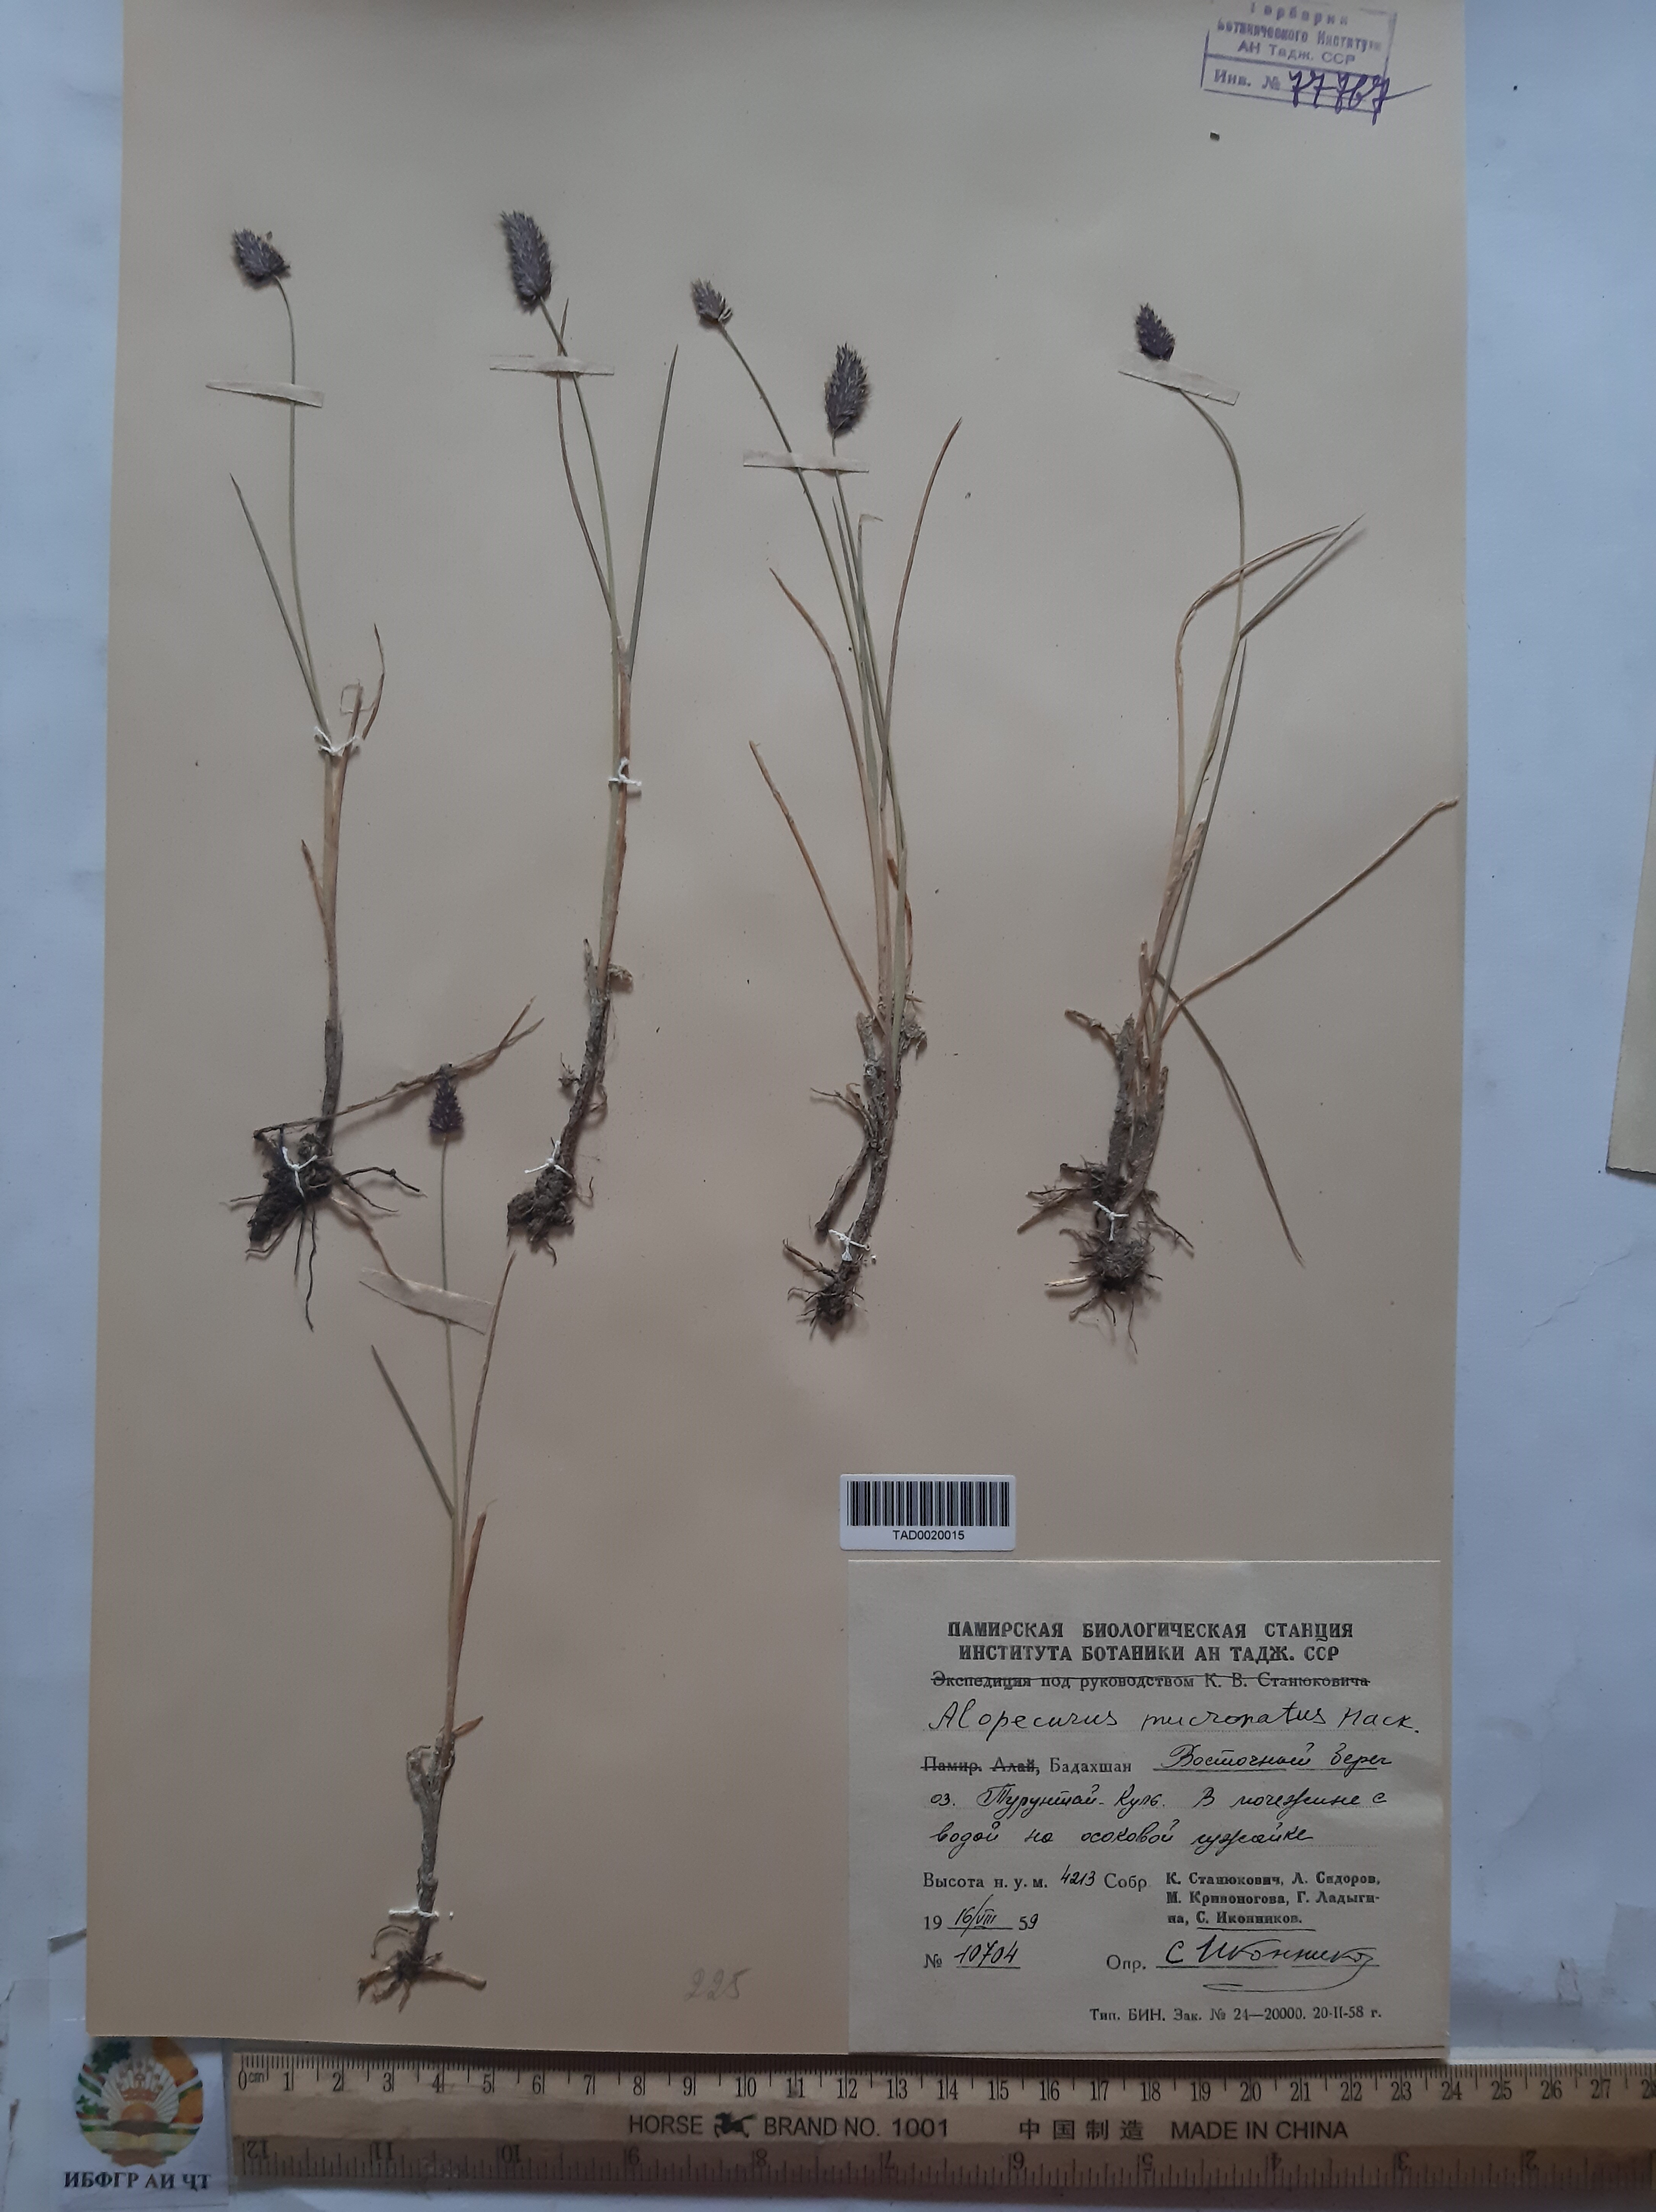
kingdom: Plantae
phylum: Tracheophyta
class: Liliopsida
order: Poales
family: Poaceae
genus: Alopecurus
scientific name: Alopecurus mucronatus
